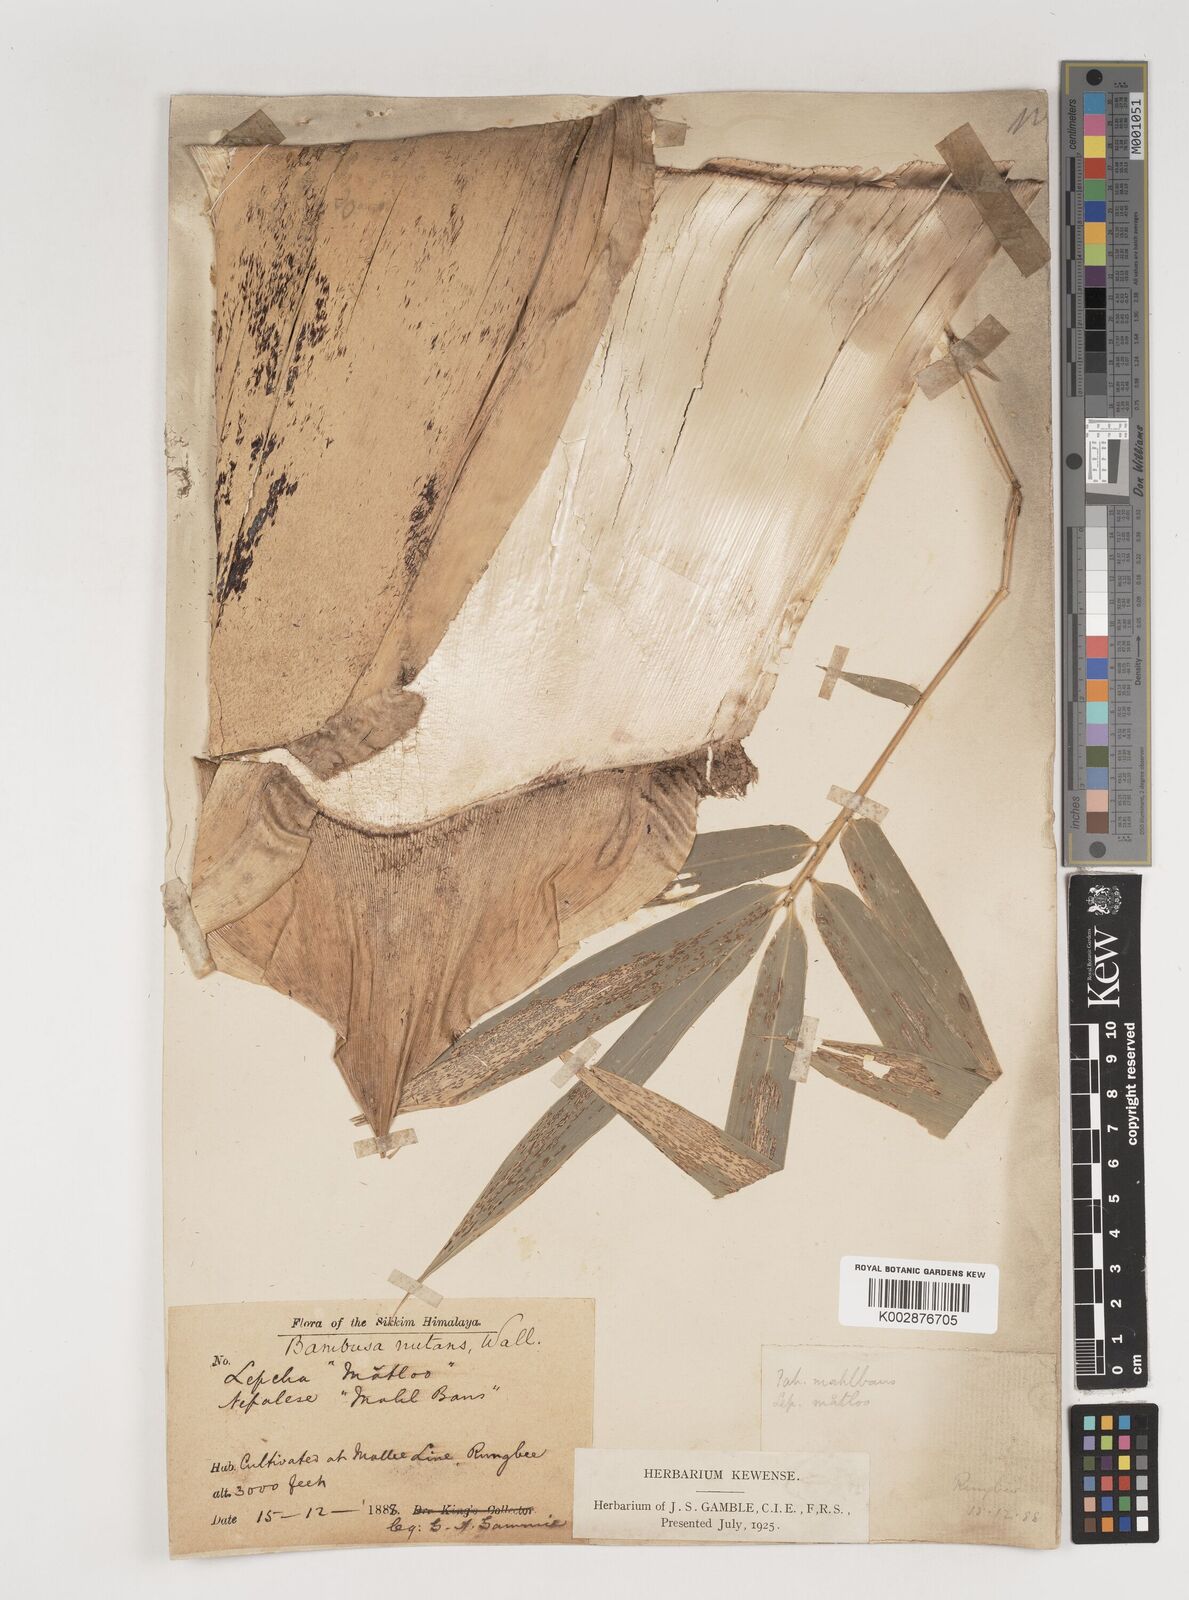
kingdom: Plantae
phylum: Tracheophyta
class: Liliopsida
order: Poales
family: Poaceae
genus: Bambusa
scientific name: Bambusa nutans
